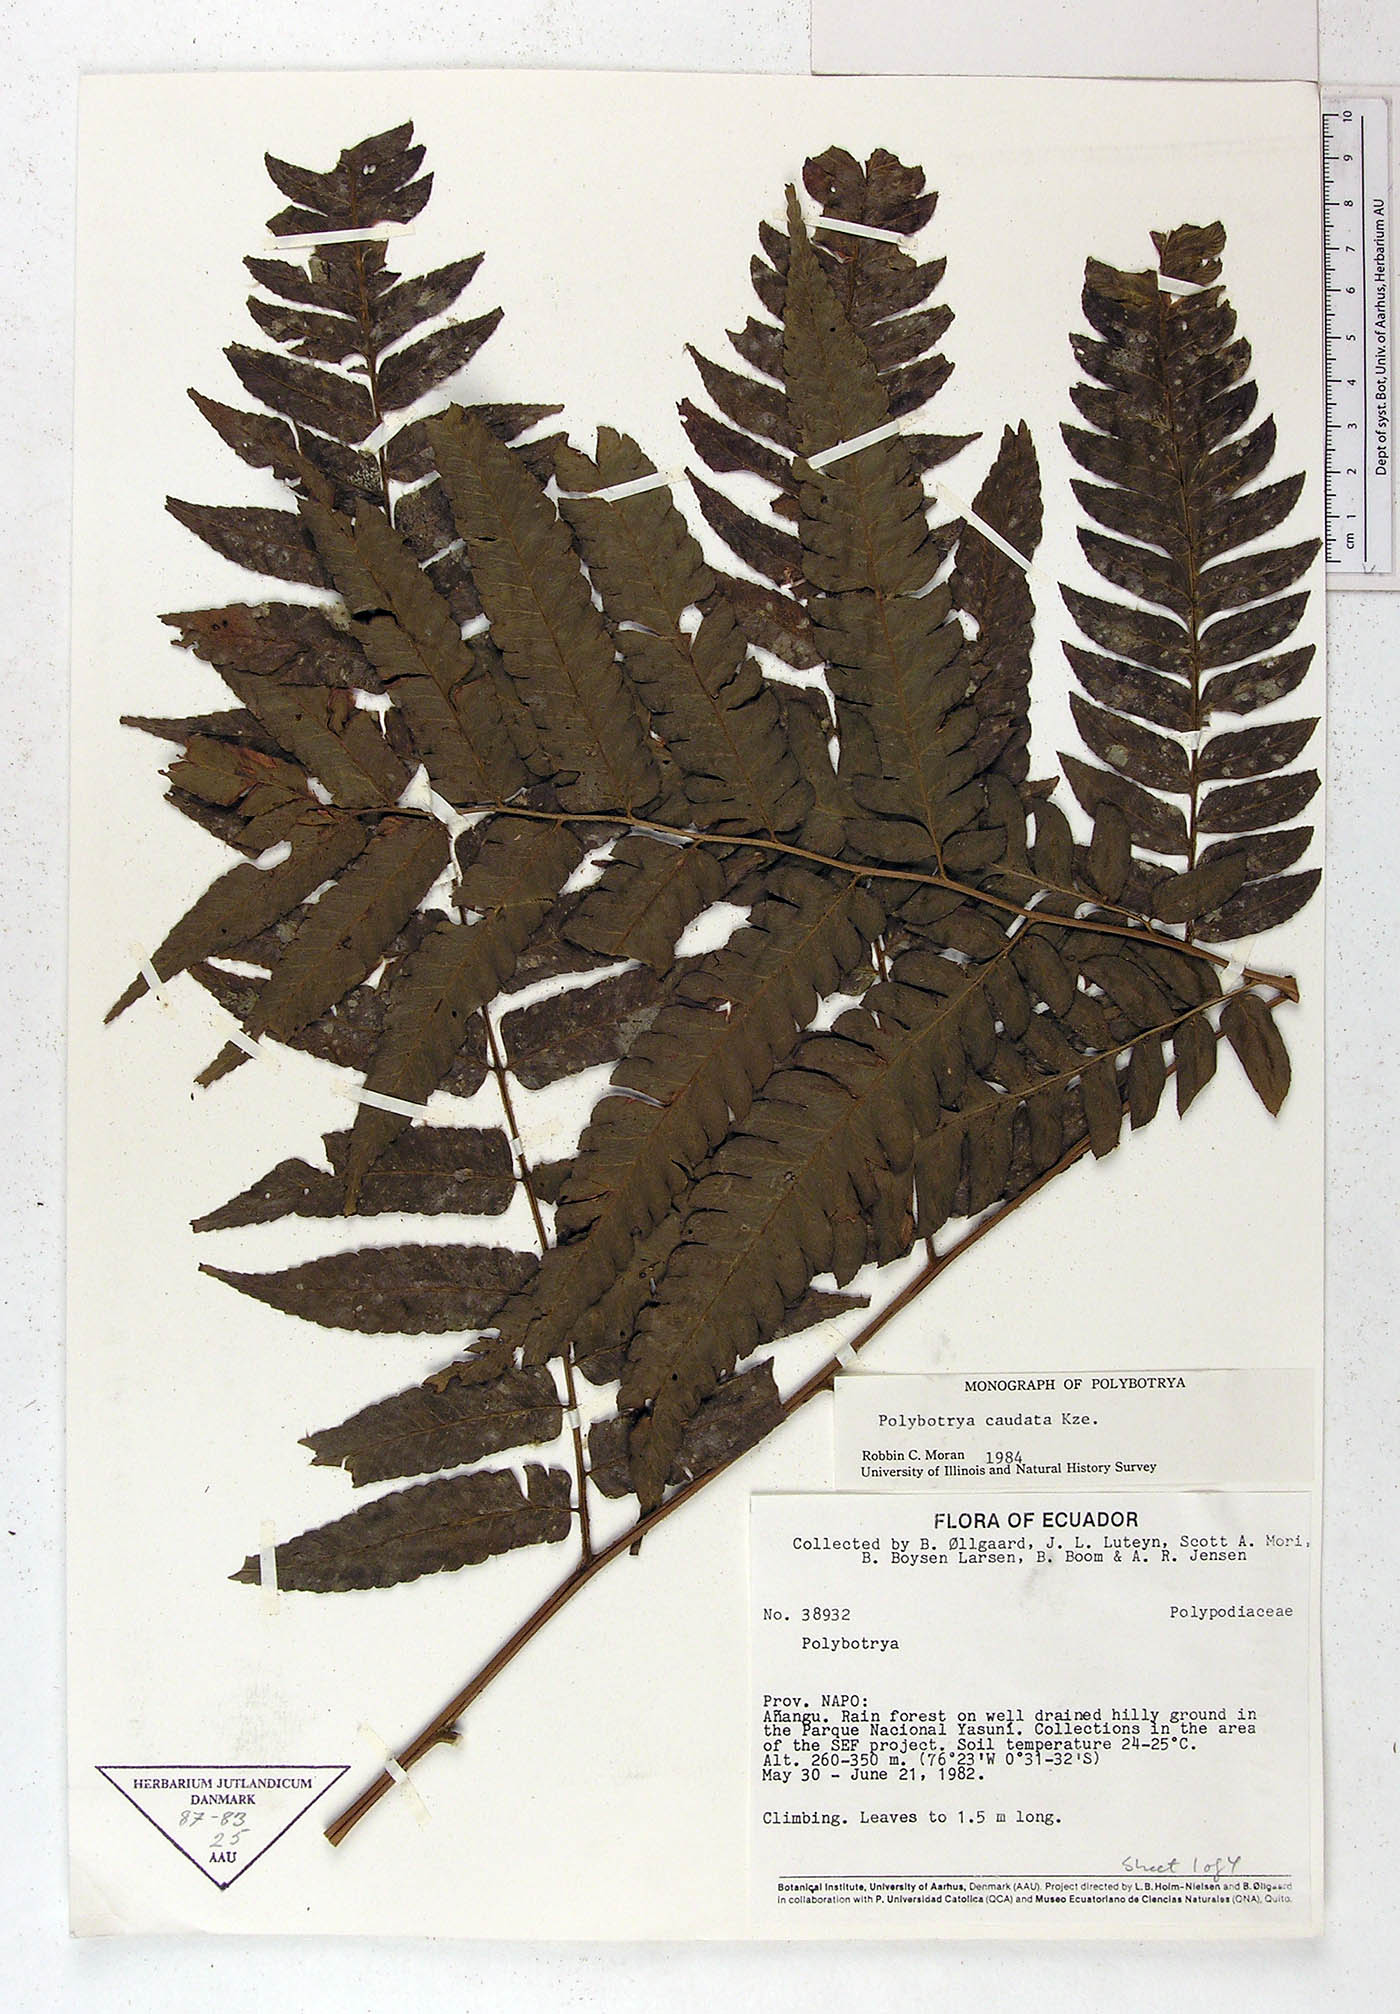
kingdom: Plantae
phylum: Tracheophyta
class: Polypodiopsida
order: Polypodiales
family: Dryopteridaceae
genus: Polybotrya
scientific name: Polybotrya caudata
